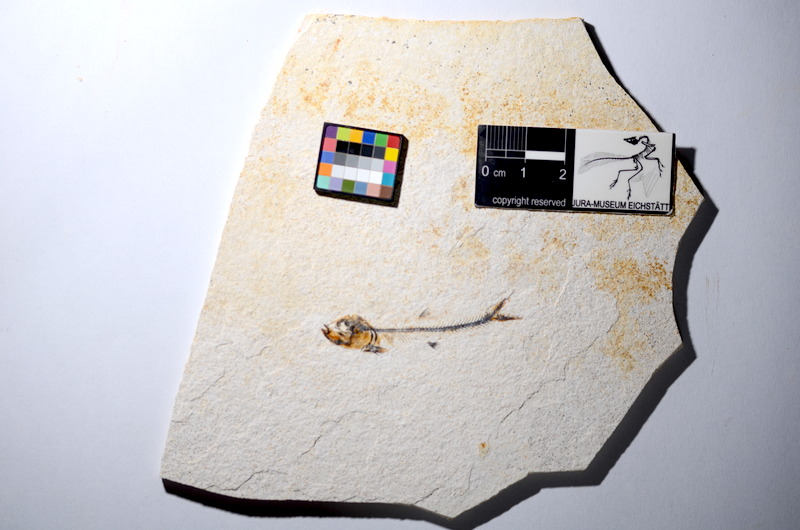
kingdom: Animalia
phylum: Chordata
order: Salmoniformes
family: Orthogonikleithridae
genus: Orthogonikleithrus
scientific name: Orthogonikleithrus hoelli
